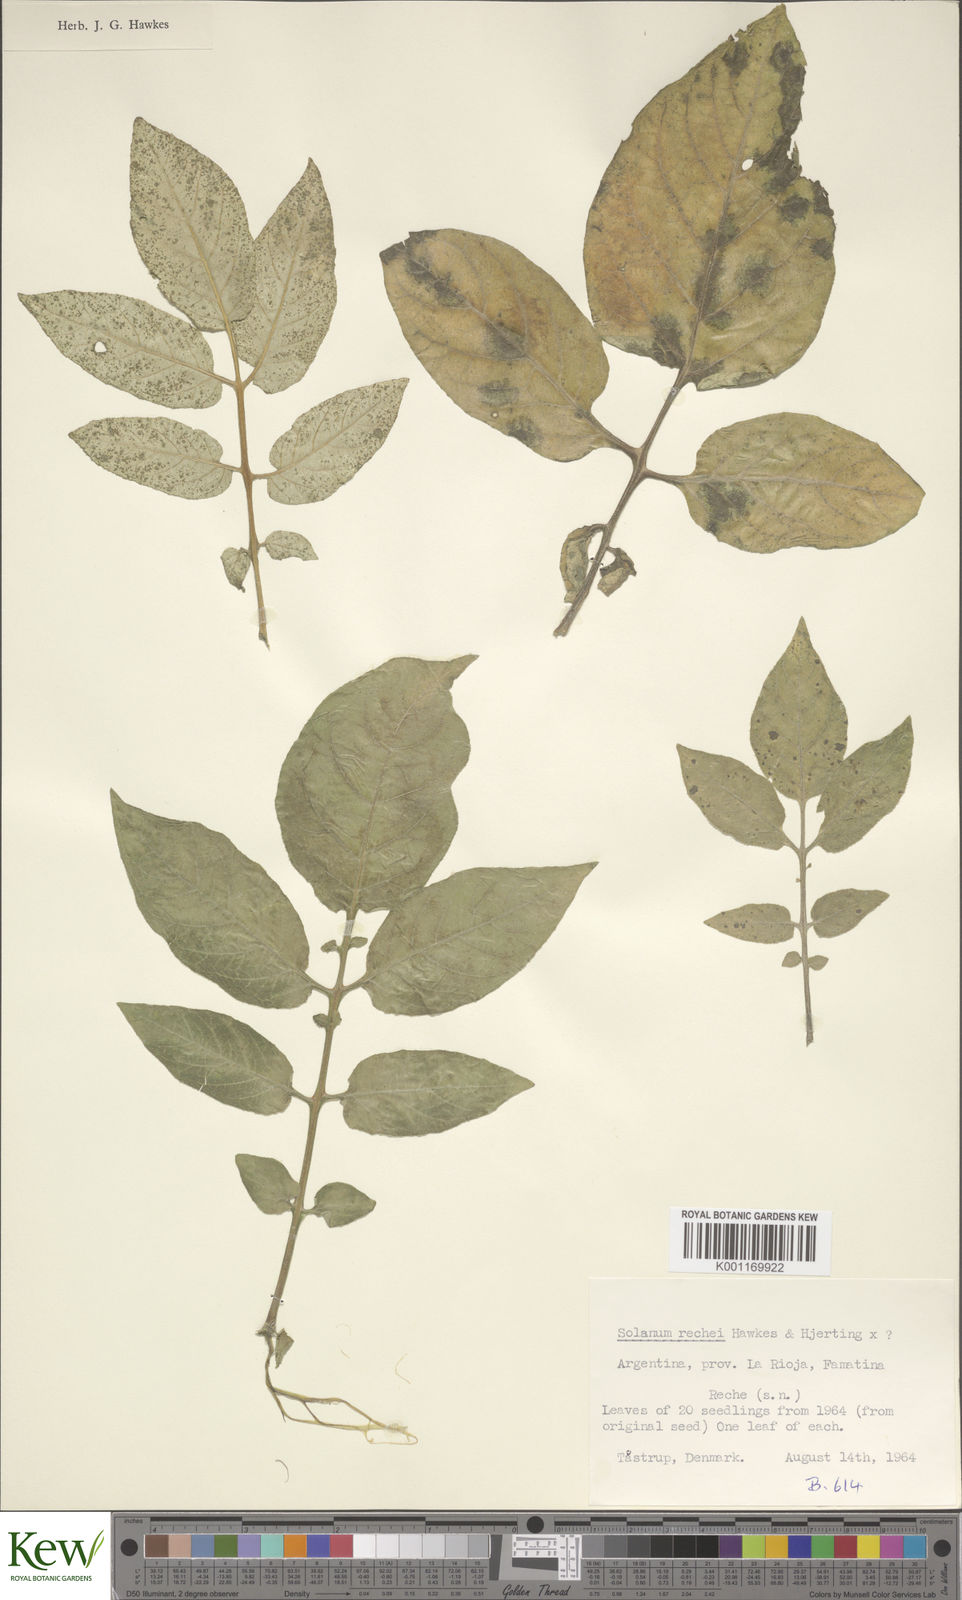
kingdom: Plantae
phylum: Tracheophyta
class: Magnoliopsida
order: Solanales
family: Solanaceae
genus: Solanum
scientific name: Solanum rechei
